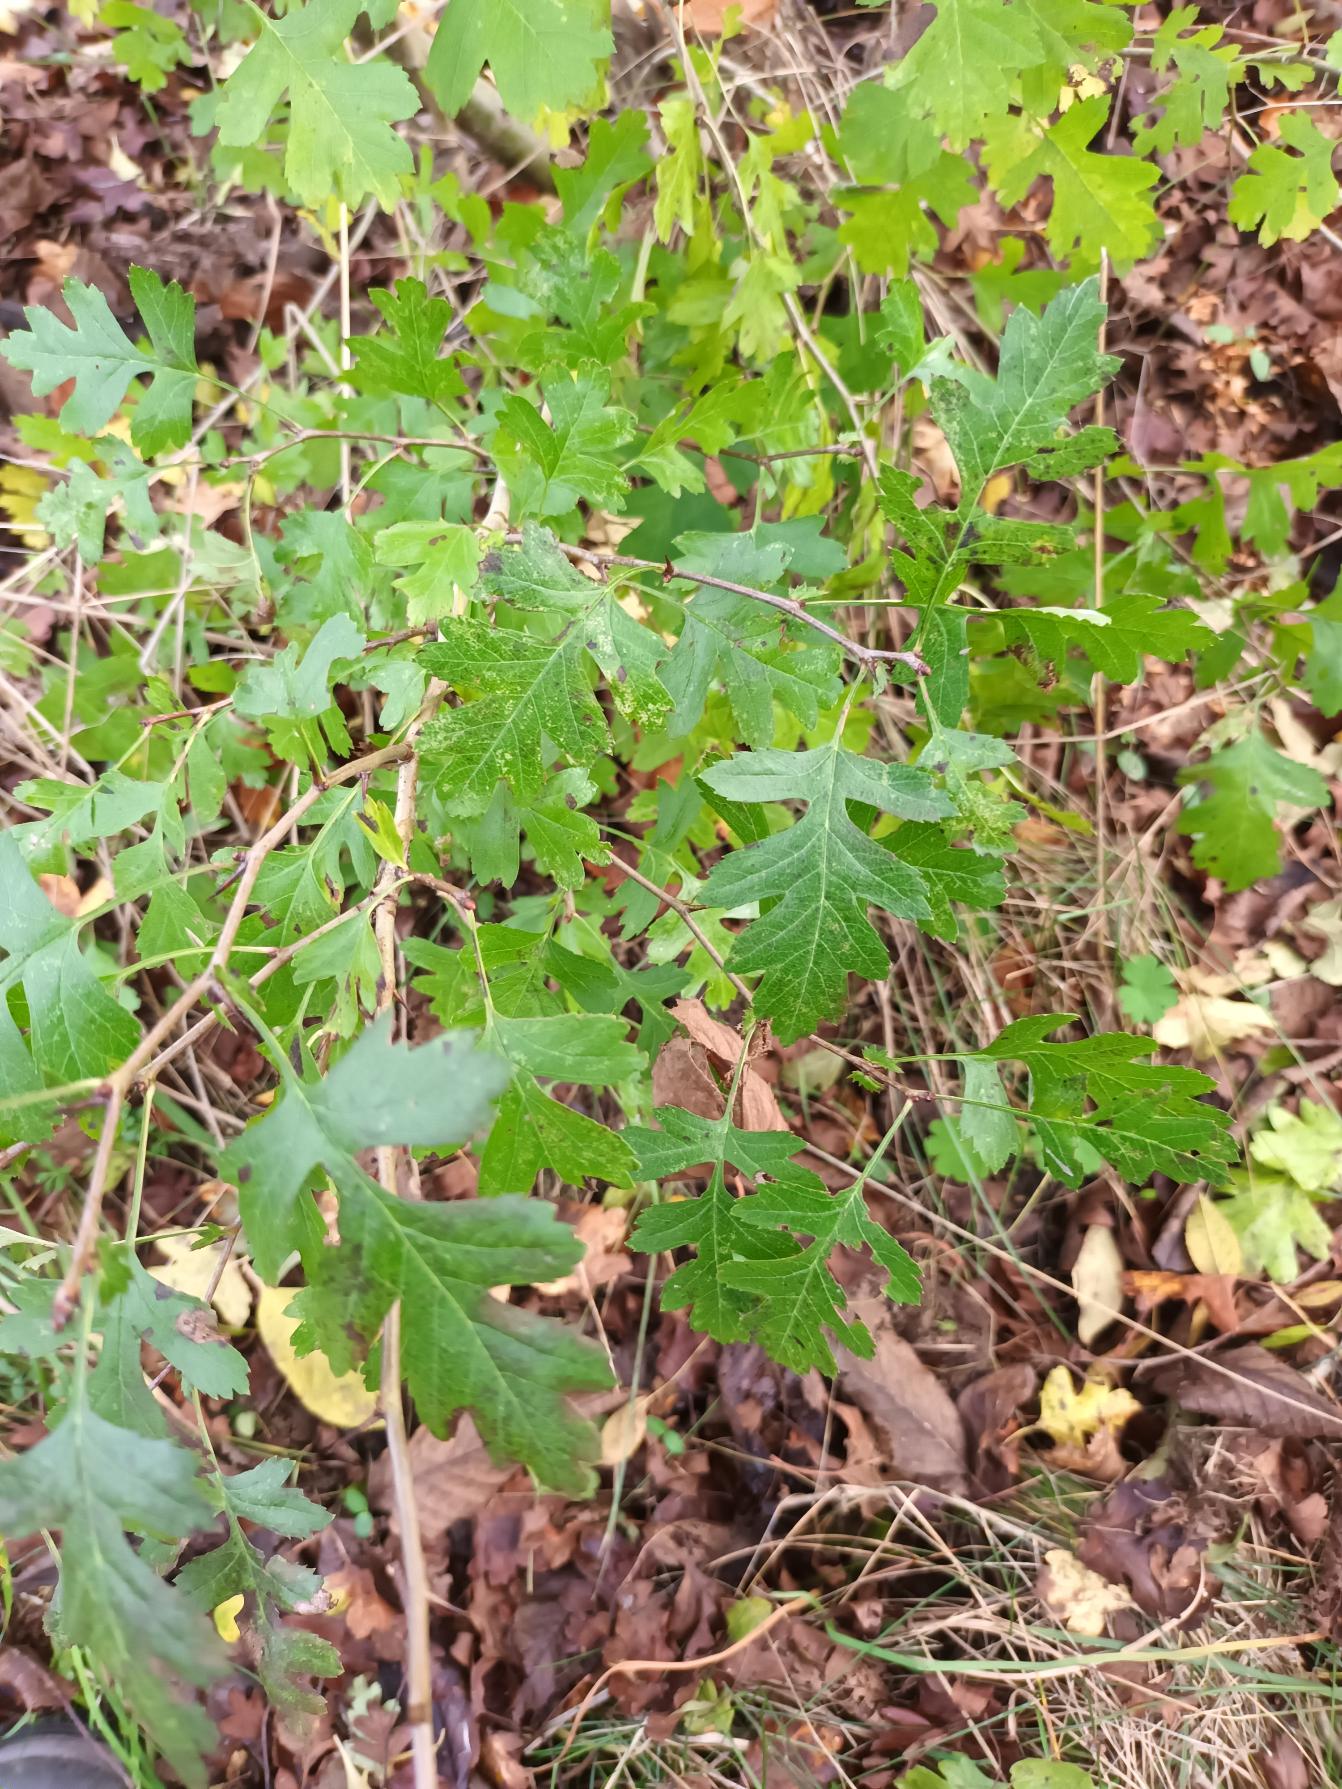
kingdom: Plantae
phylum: Tracheophyta
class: Magnoliopsida
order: Rosales
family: Rosaceae
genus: Crataegus
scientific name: Crataegus monogyna
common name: Engriflet hvidtjørn
